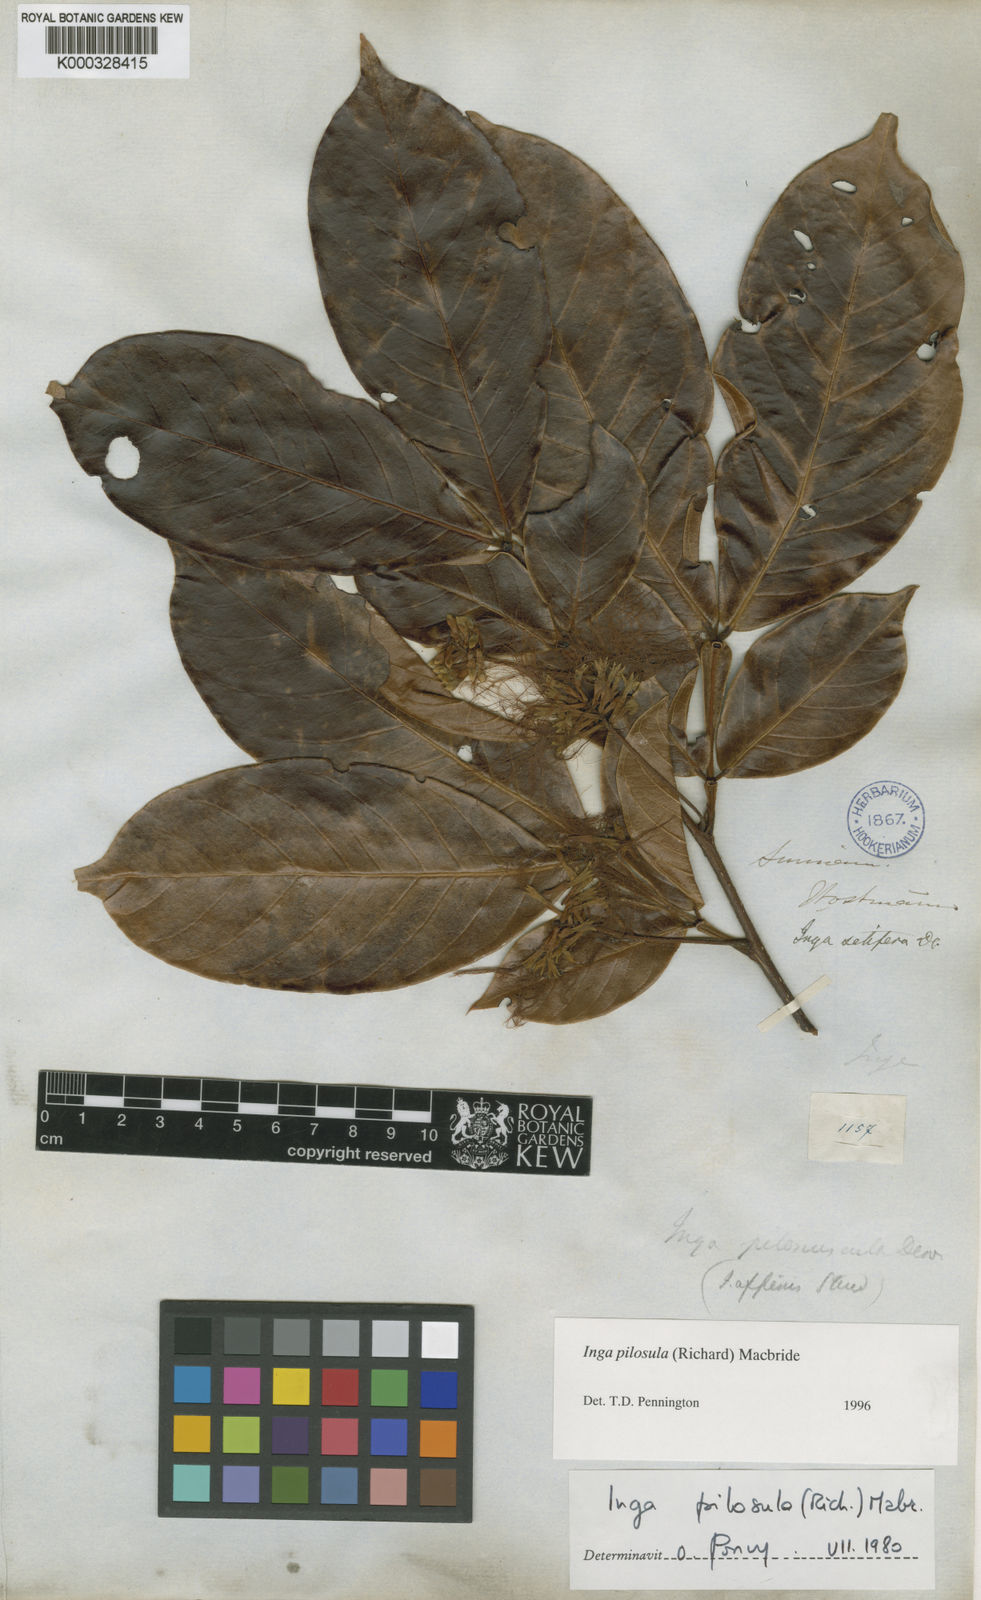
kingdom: Plantae
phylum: Tracheophyta
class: Magnoliopsida
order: Fabales
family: Fabaceae
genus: Inga
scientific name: Inga pilosula
